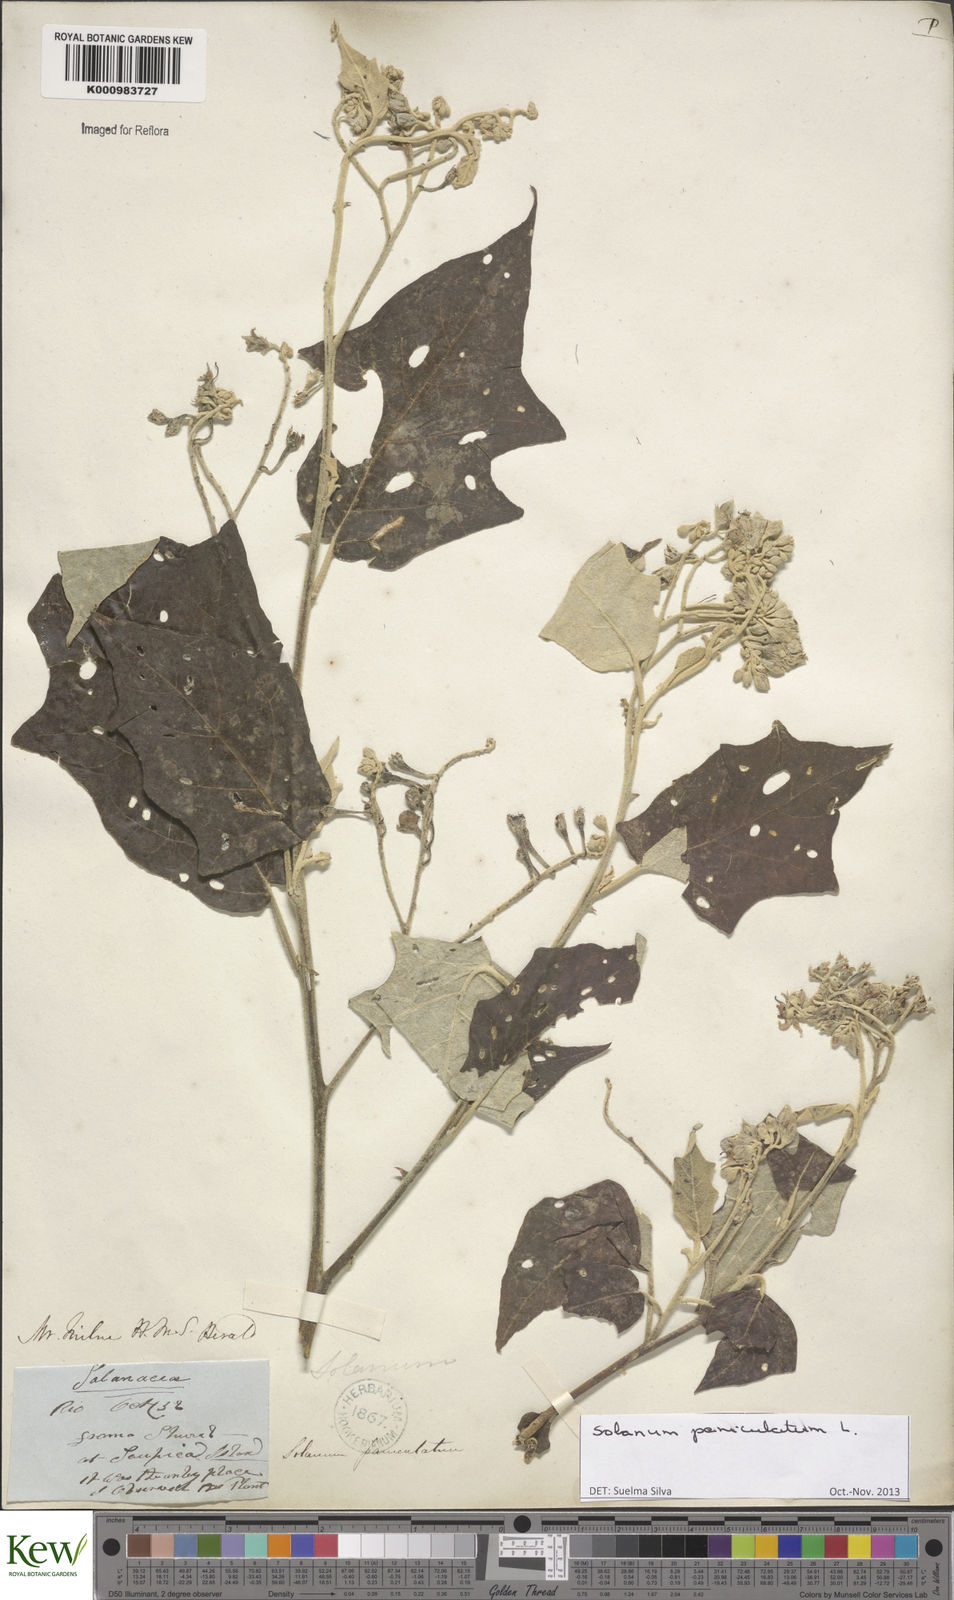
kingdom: Plantae
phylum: Tracheophyta
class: Magnoliopsida
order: Solanales
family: Solanaceae
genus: Solanum
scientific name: Solanum paniculatum
